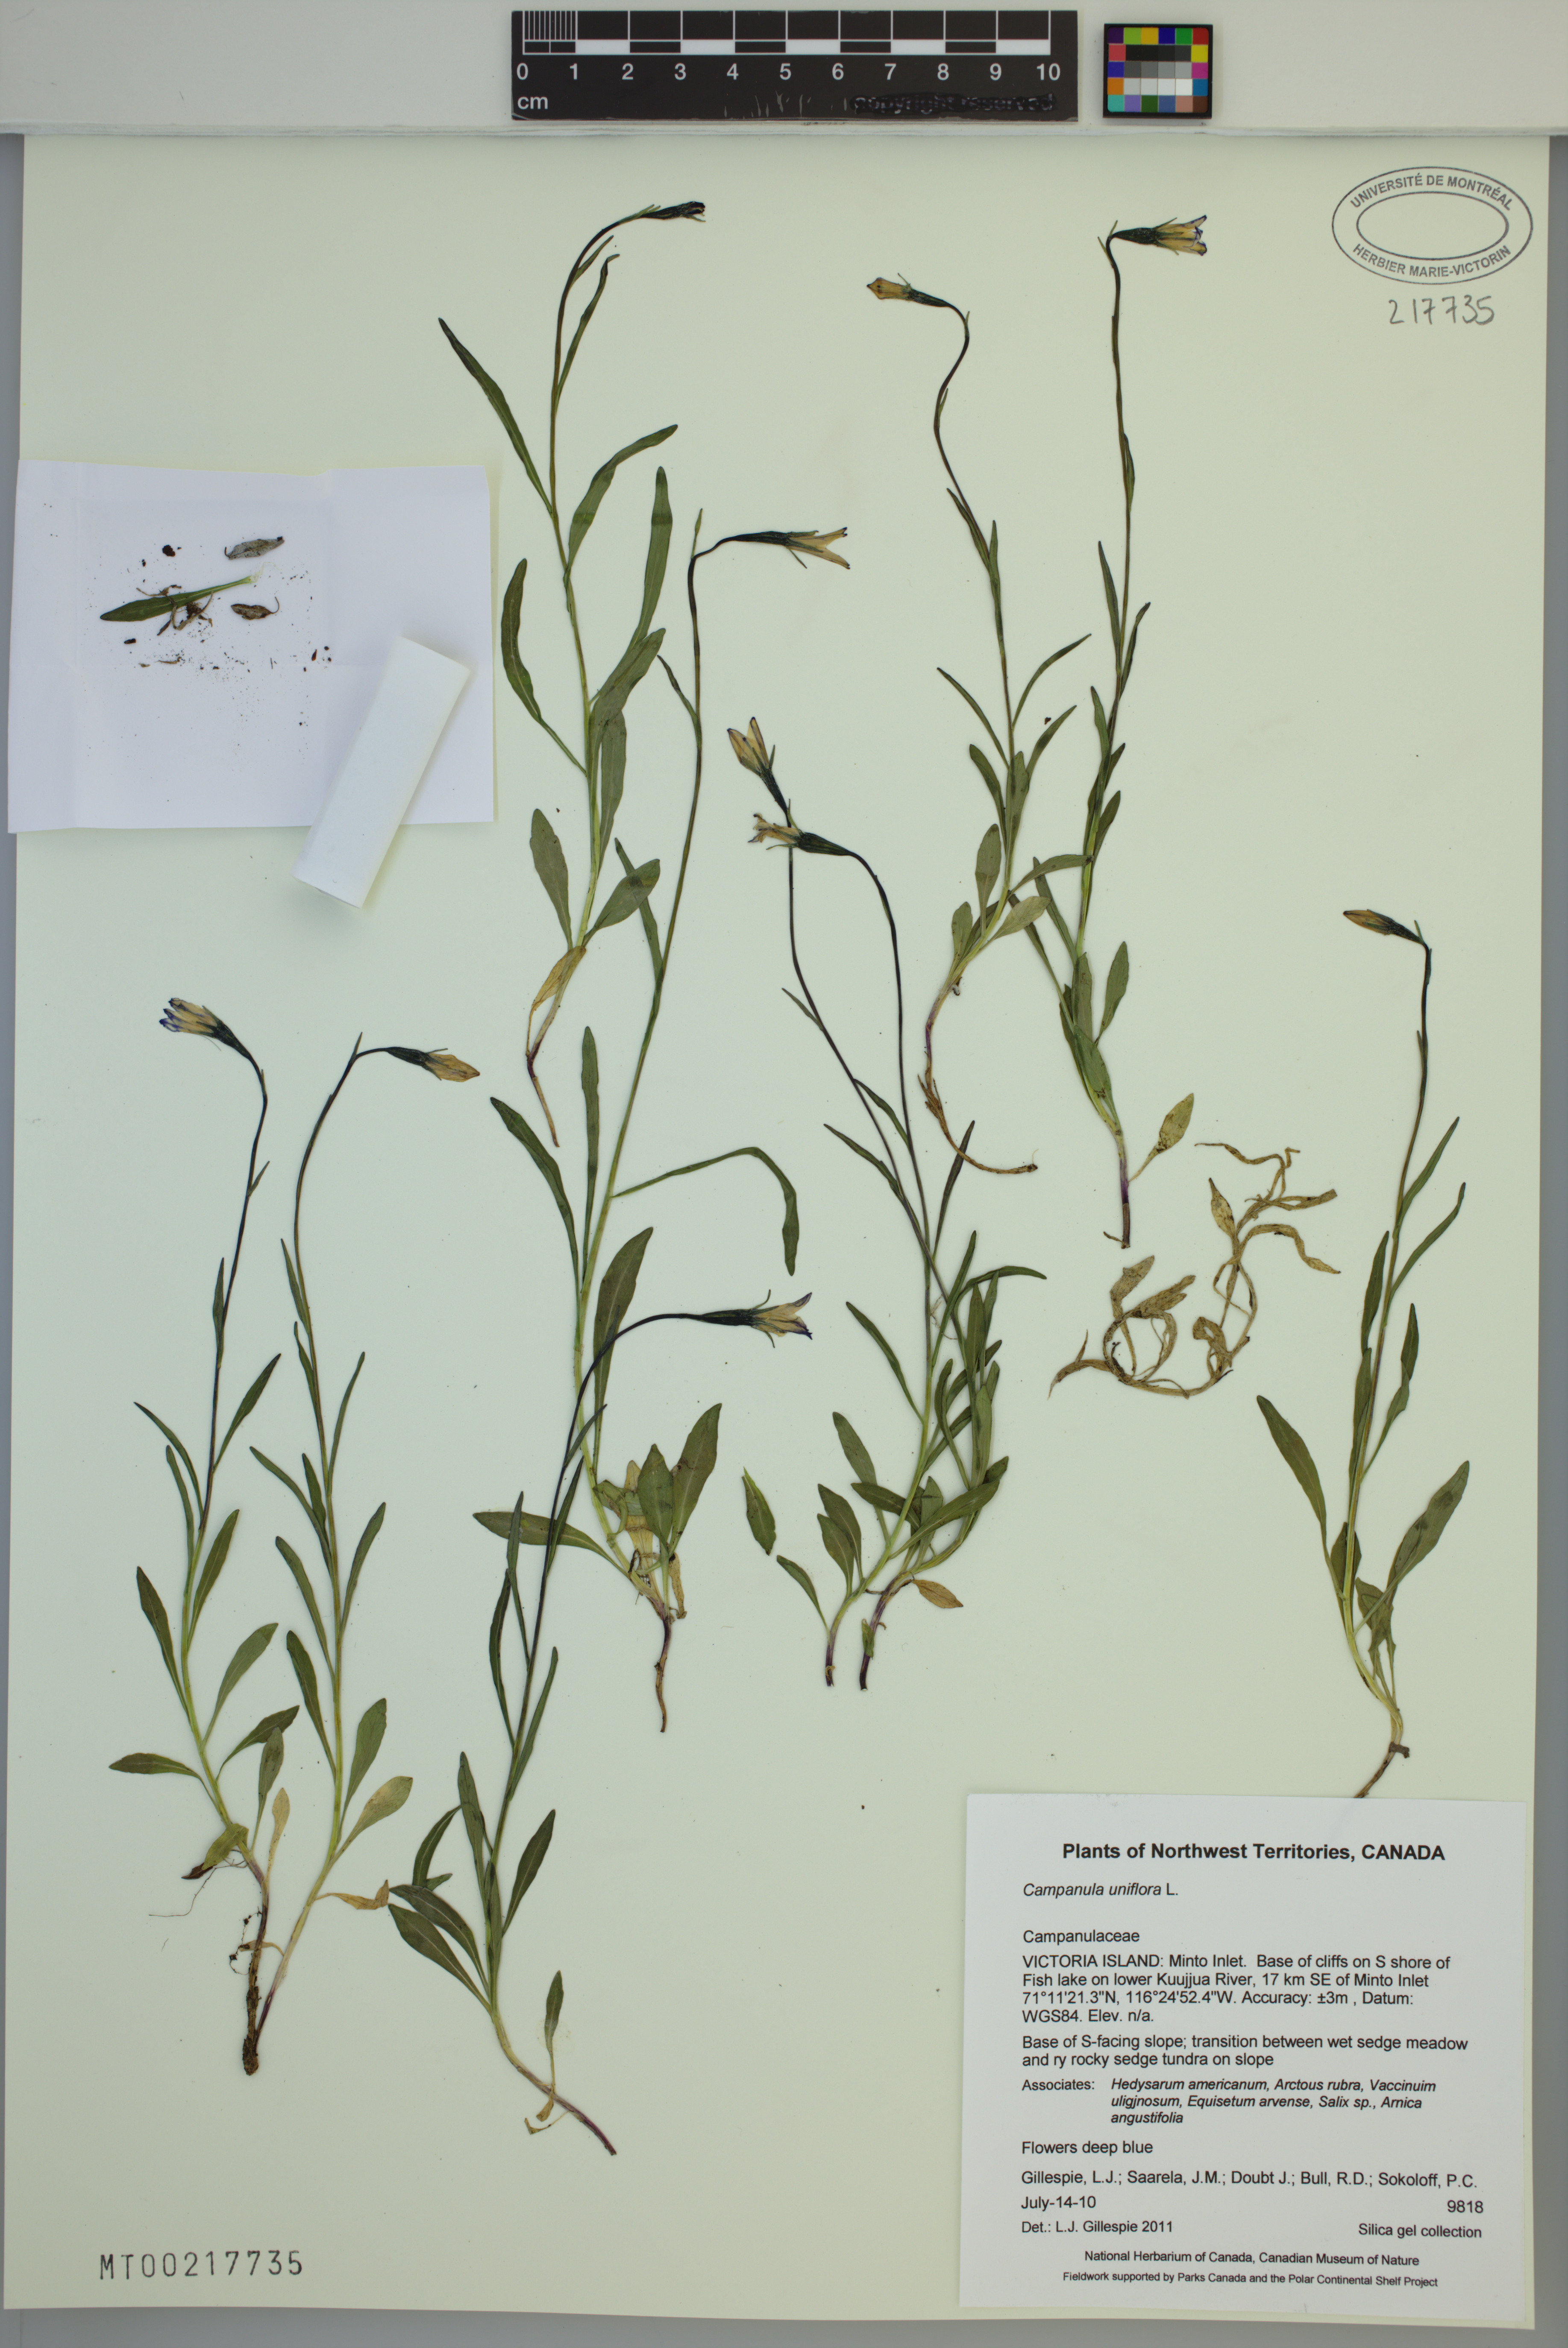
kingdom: Plantae
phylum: Tracheophyta
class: Magnoliopsida
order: Asterales
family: Campanulaceae
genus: Melanocalyx
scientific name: Melanocalyx uniflora
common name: Alpine harebell
